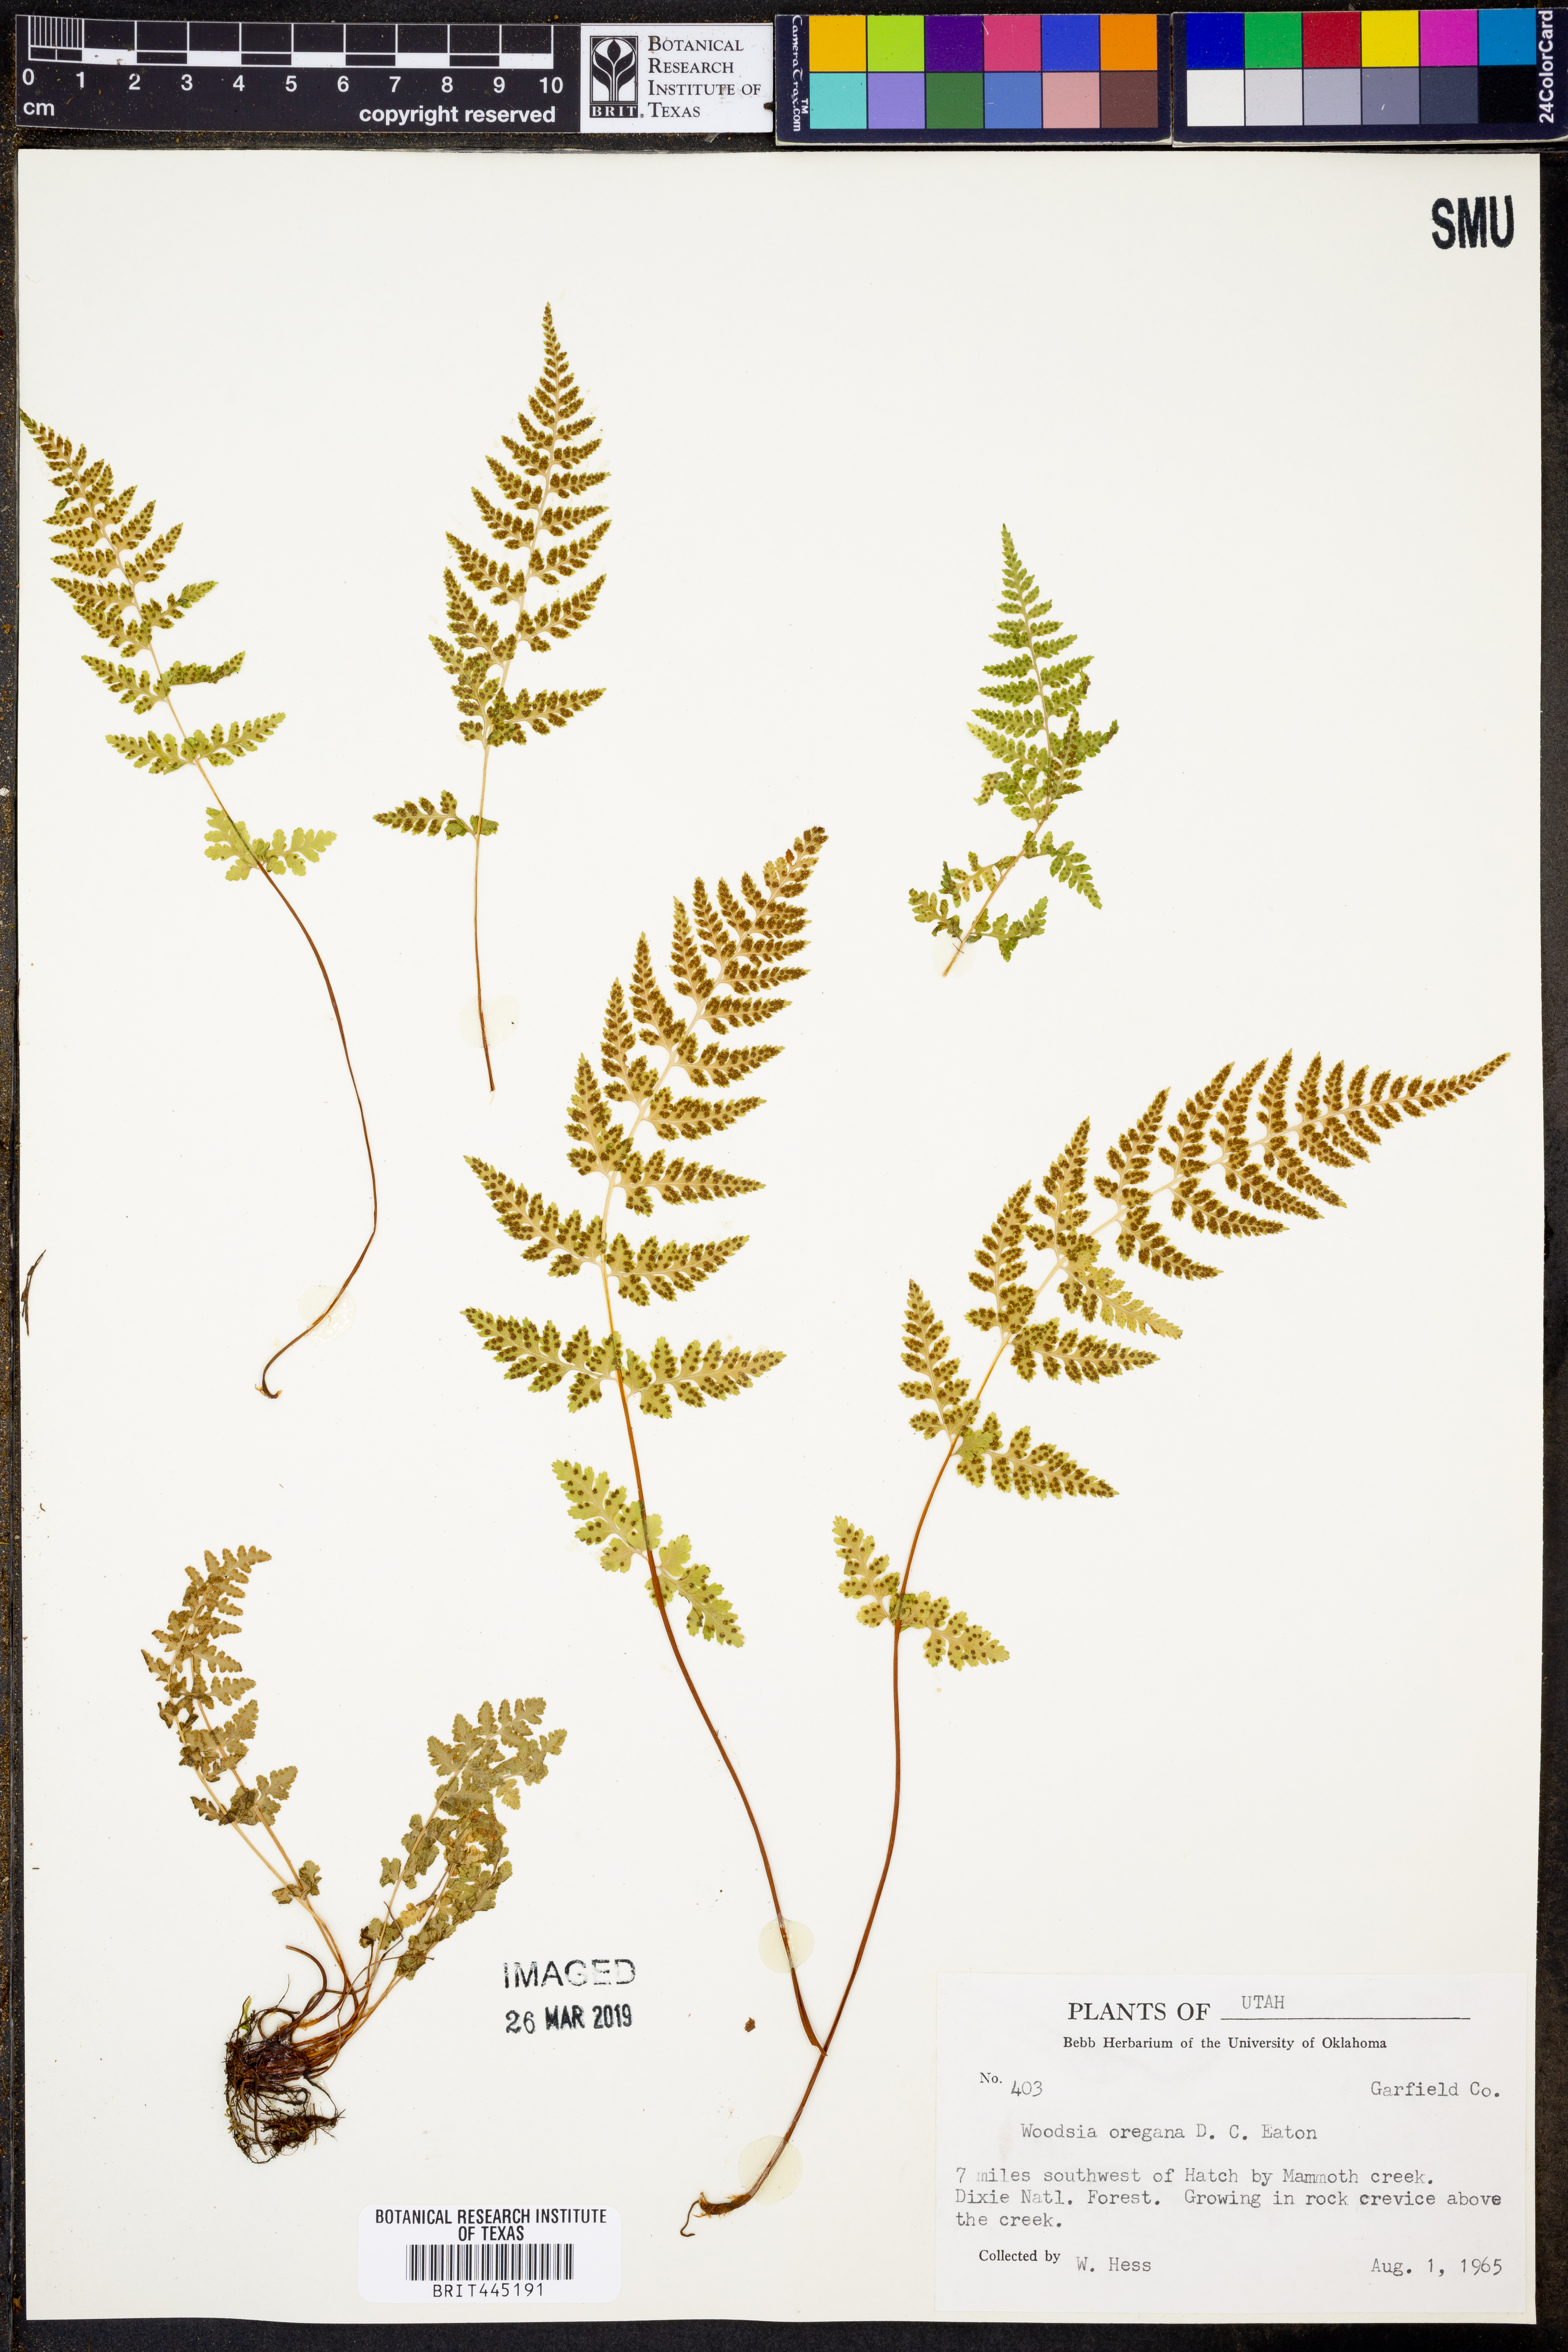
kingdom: Plantae
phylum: Tracheophyta
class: Polypodiopsida
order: Polypodiales
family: Woodsiaceae
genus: Physematium
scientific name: Physematium oreganum
